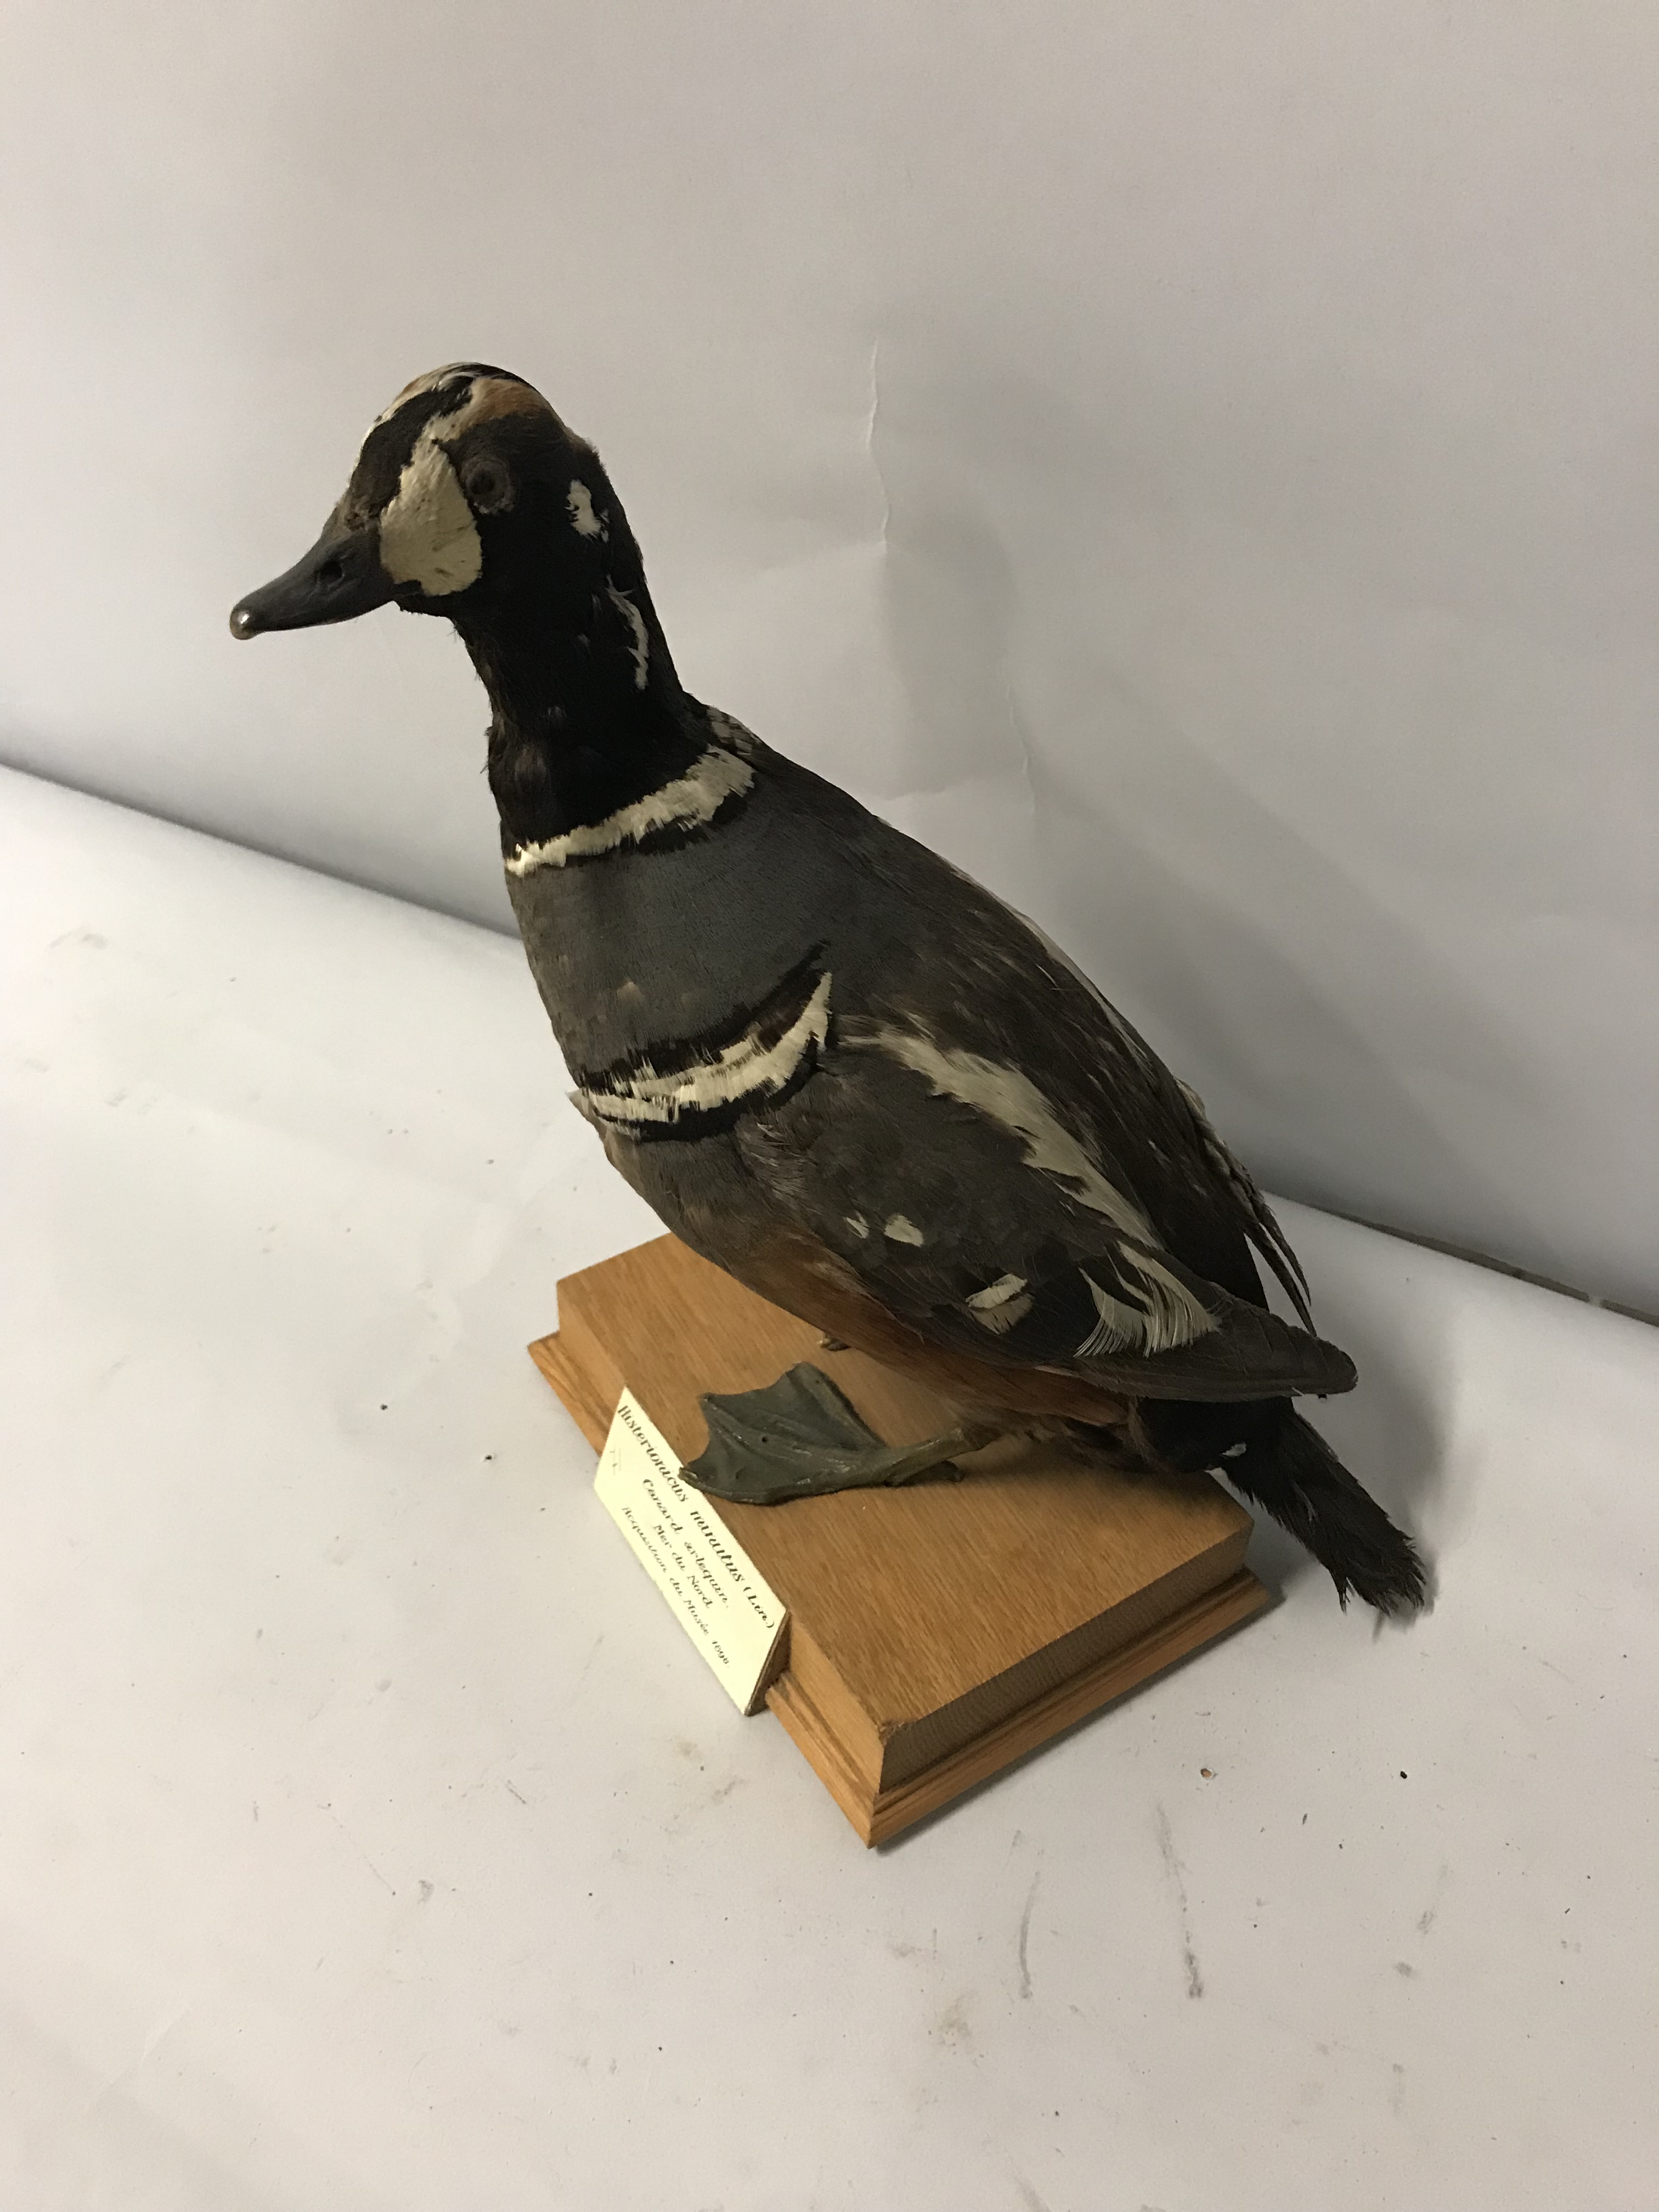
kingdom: Animalia
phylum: Chordata
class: Aves
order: Anseriformes
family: Anatidae
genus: Histrionicus
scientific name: Histrionicus histrionicus
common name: Harlequin duck
